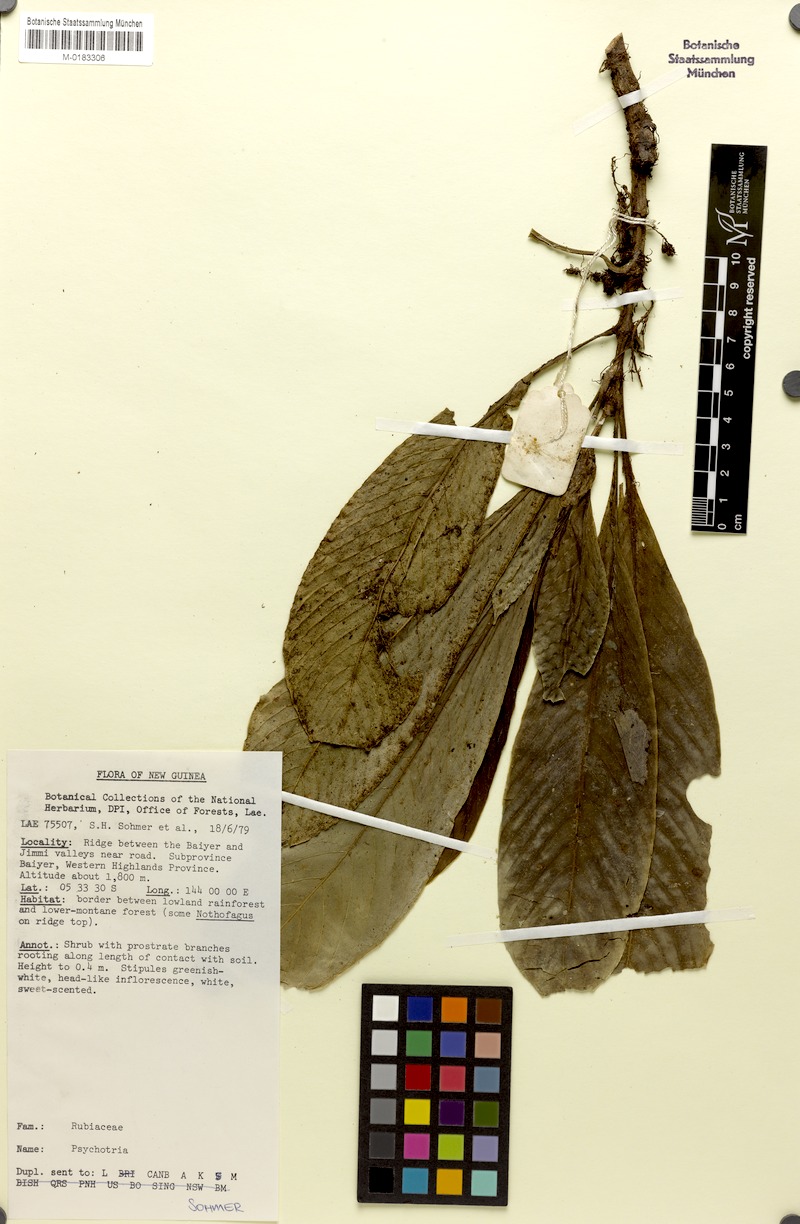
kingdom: Plantae
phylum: Tracheophyta
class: Magnoliopsida
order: Gentianales
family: Rubiaceae
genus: Psychotria
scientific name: Psychotria ramadecumbens
